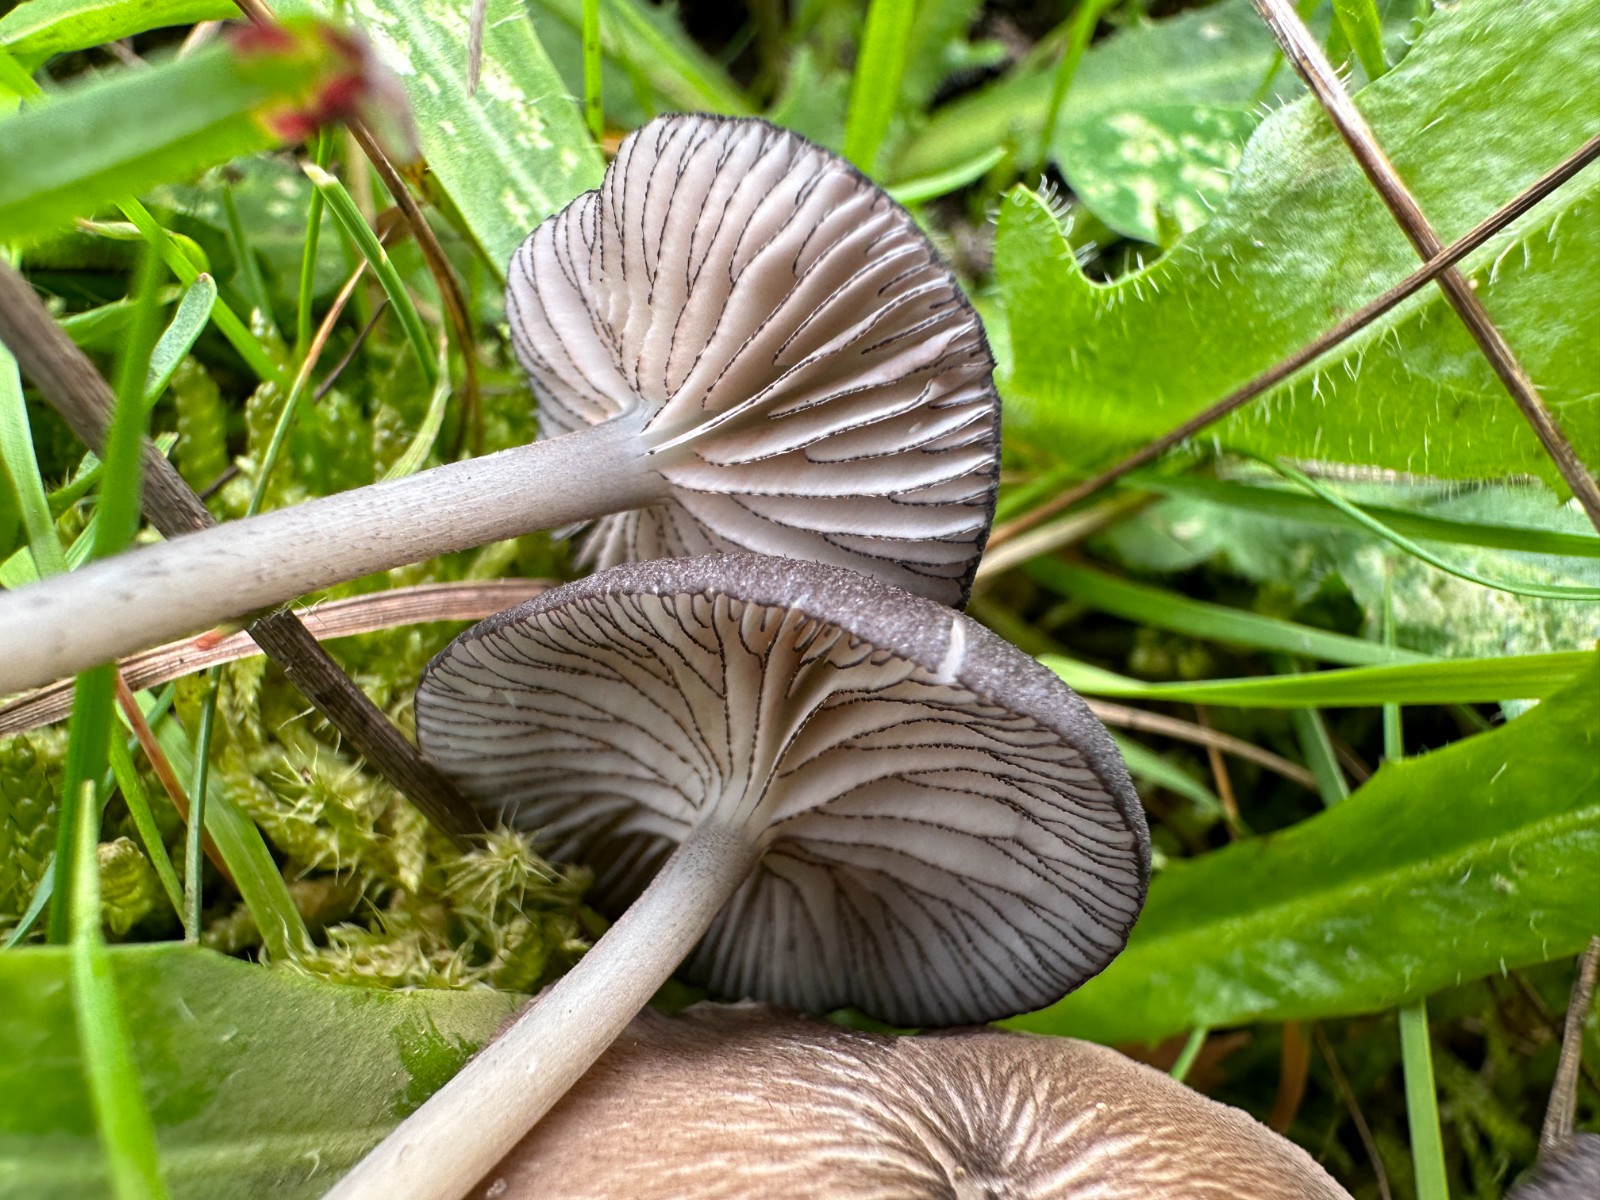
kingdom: Fungi
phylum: Basidiomycota
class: Agaricomycetes
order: Agaricales
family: Entolomataceae
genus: Entoloma
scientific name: Entoloma
